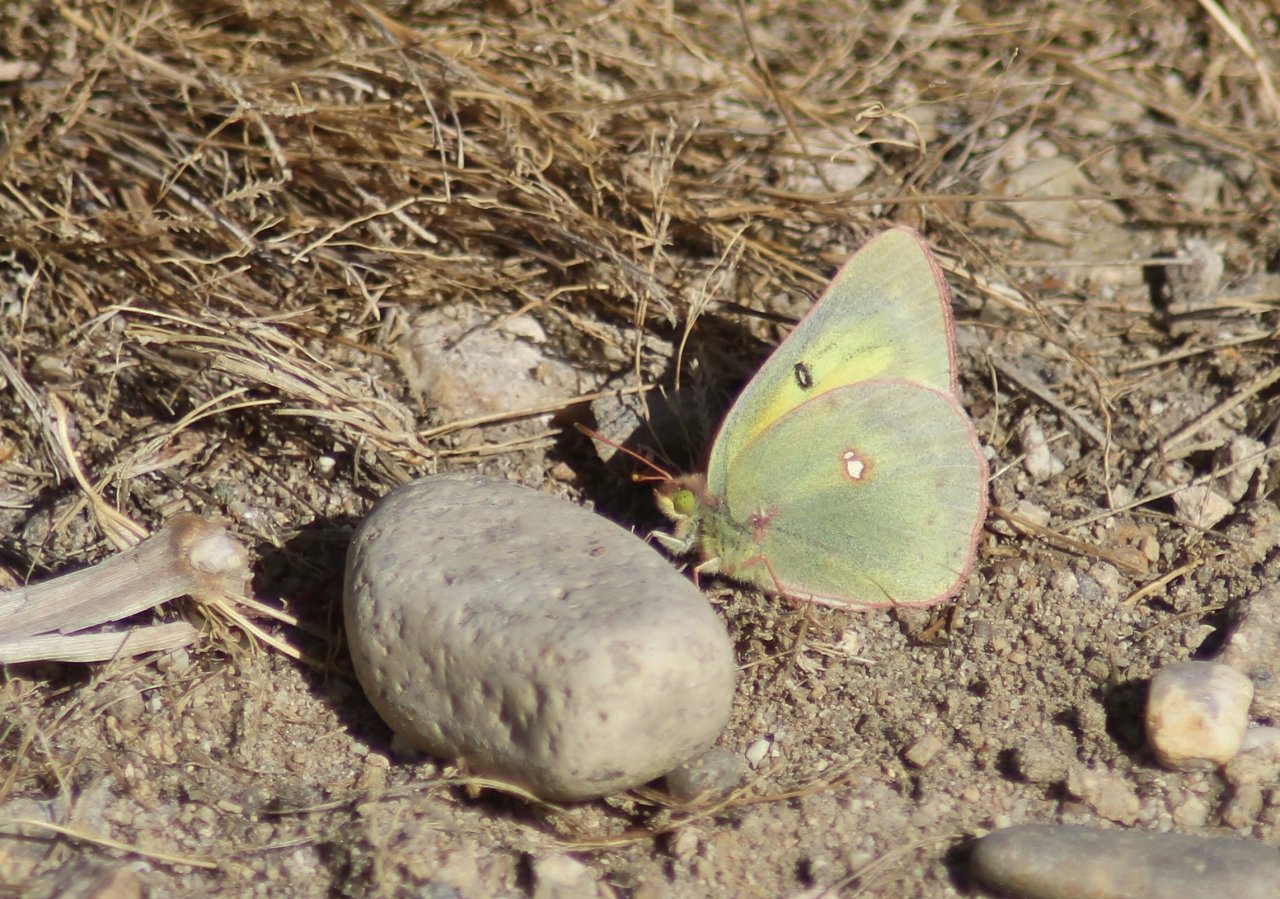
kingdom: Animalia
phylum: Arthropoda
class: Insecta
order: Lepidoptera
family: Pieridae
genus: Colias
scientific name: Colias
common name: Clouded Yellows
